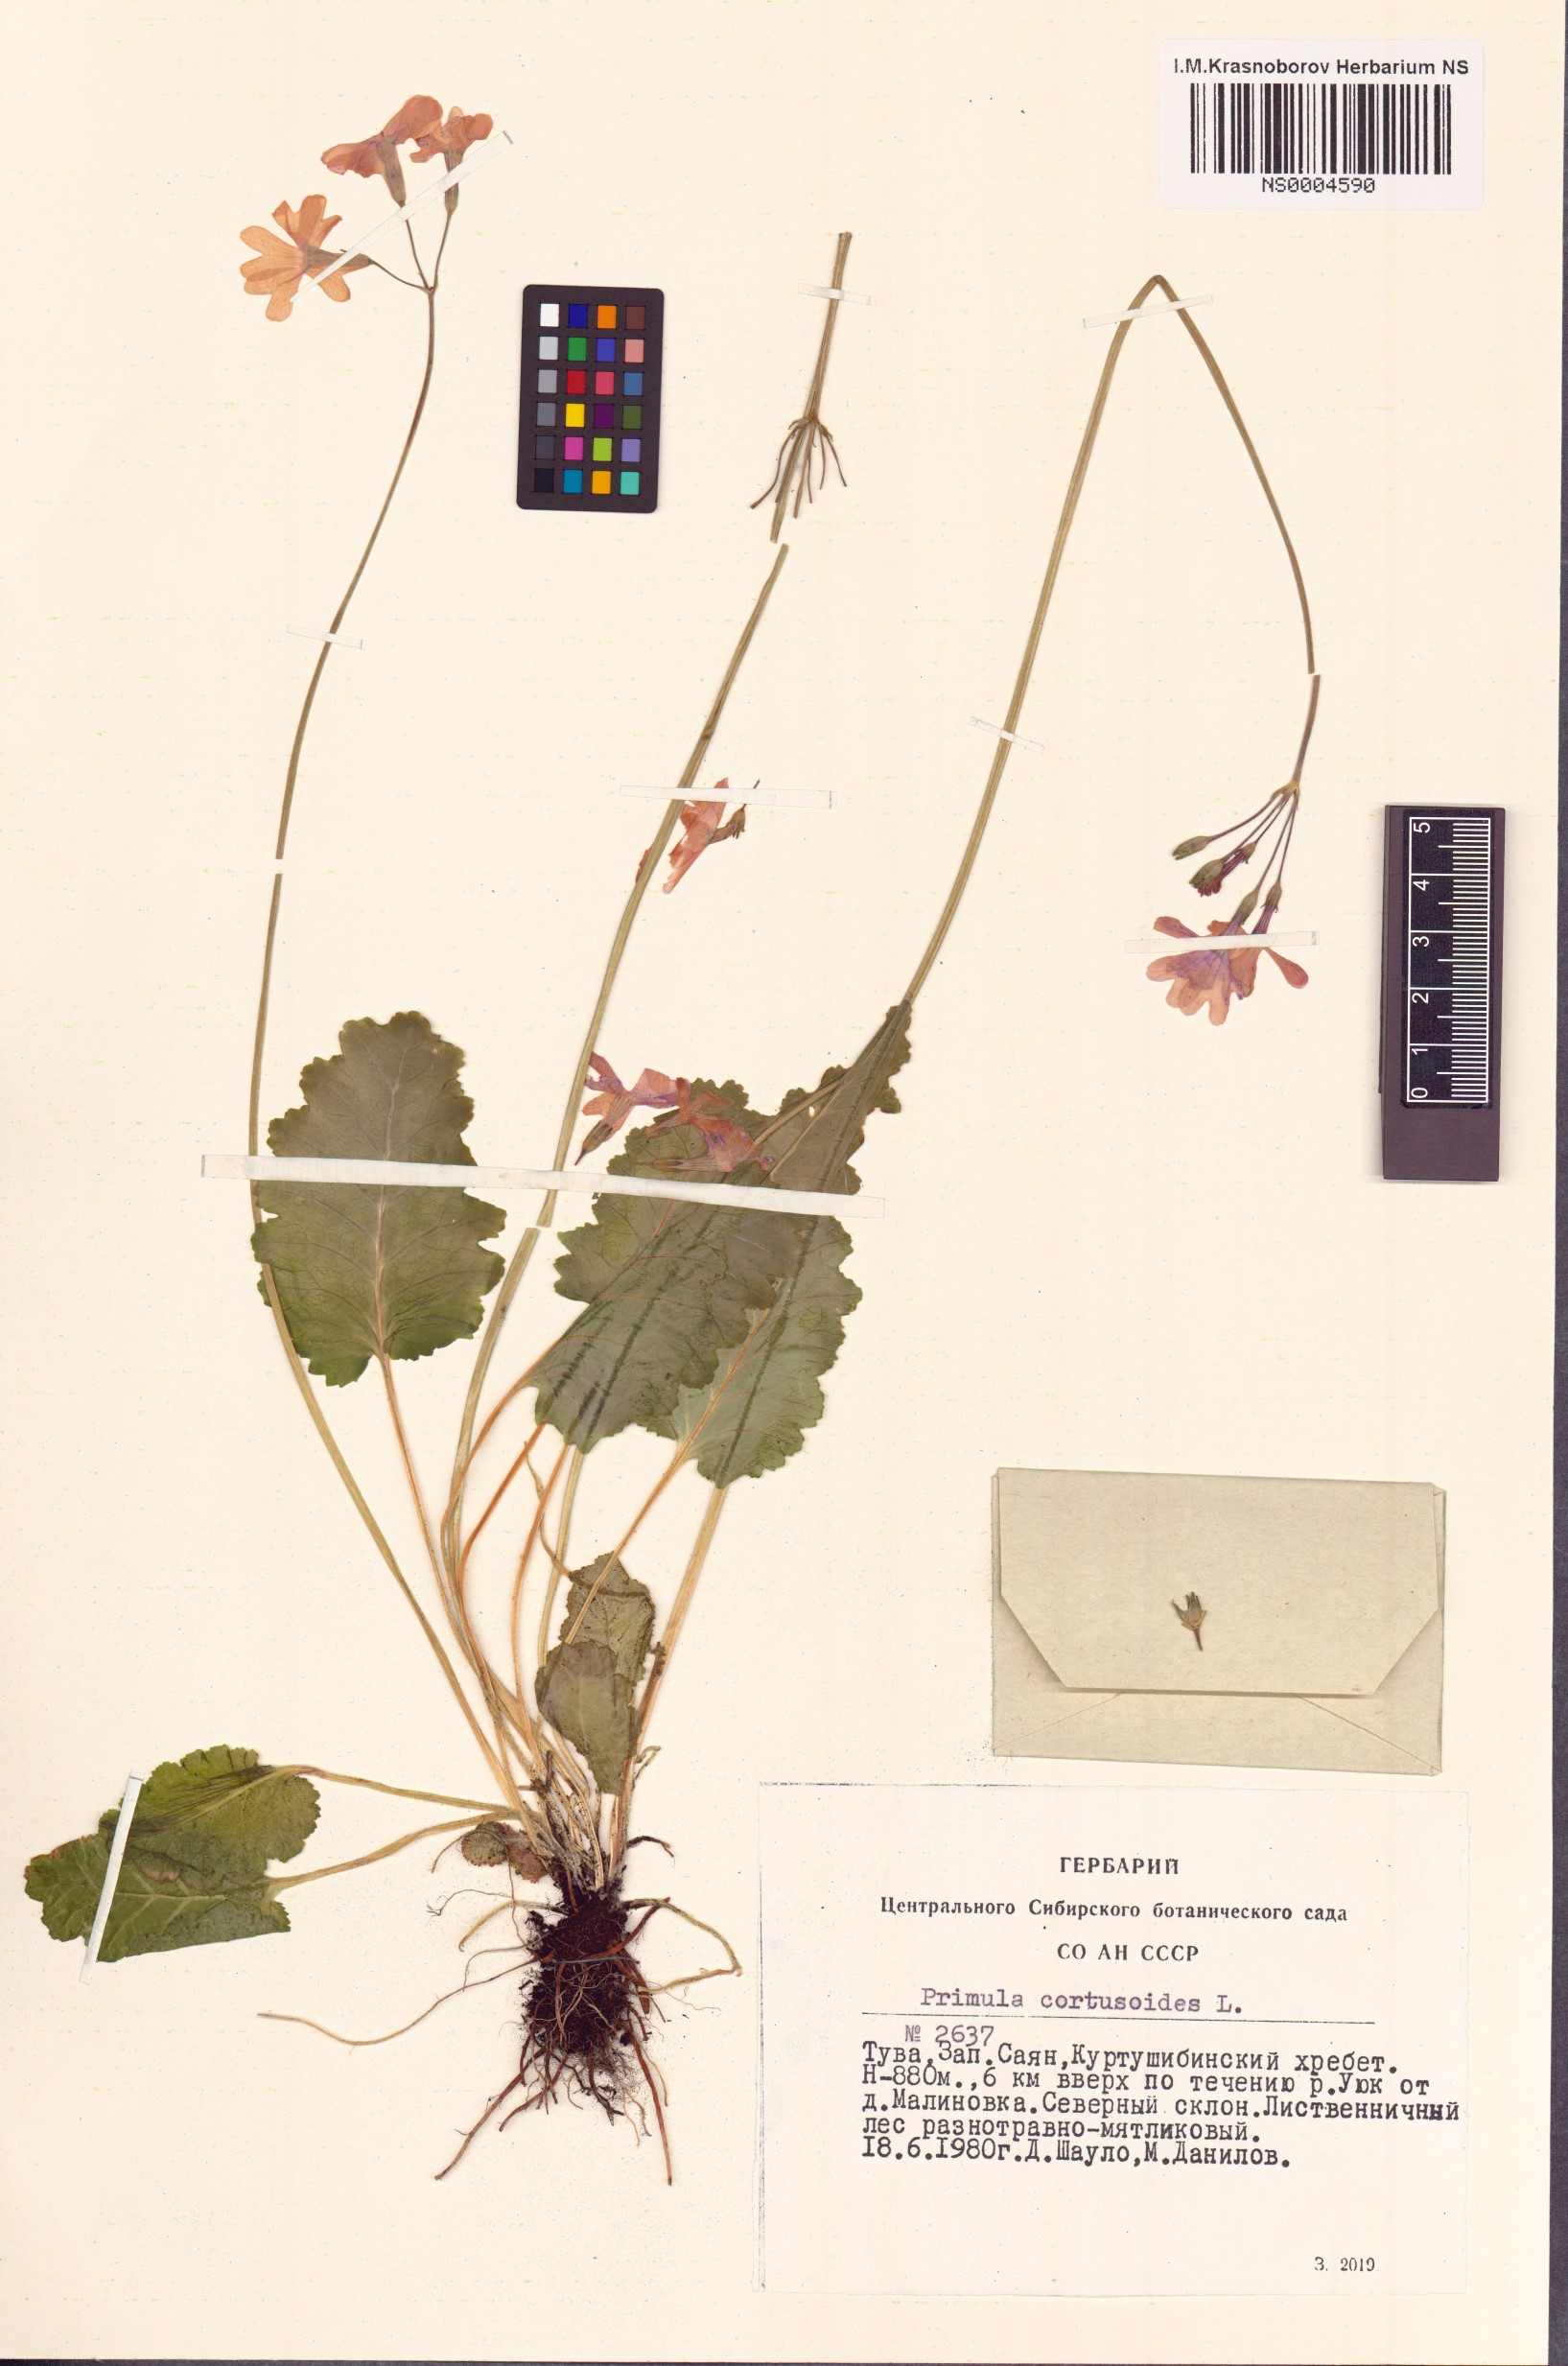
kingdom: Plantae
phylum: Tracheophyta
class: Magnoliopsida
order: Ericales
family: Primulaceae
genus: Primula
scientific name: Primula cortusoides
